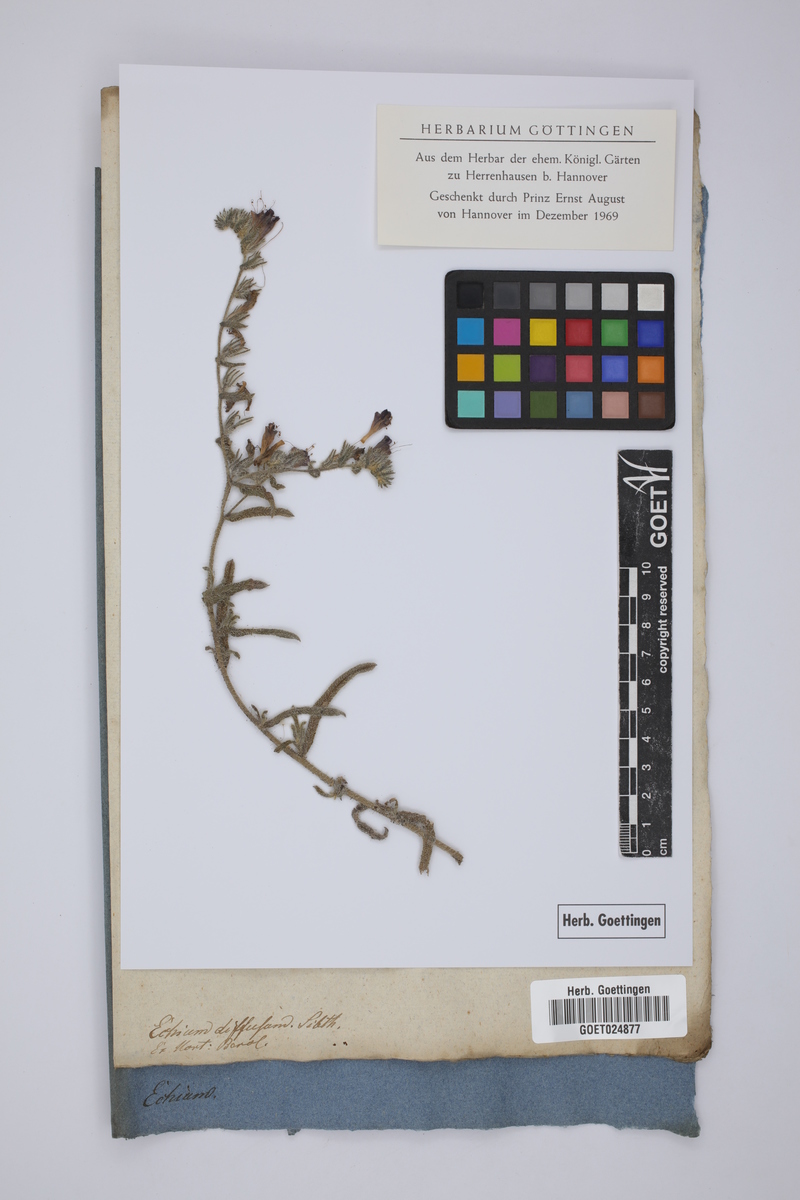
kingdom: Plantae
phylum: Tracheophyta
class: Magnoliopsida
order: Boraginales
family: Boraginaceae
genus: Echium
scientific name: Echium angustifolium
